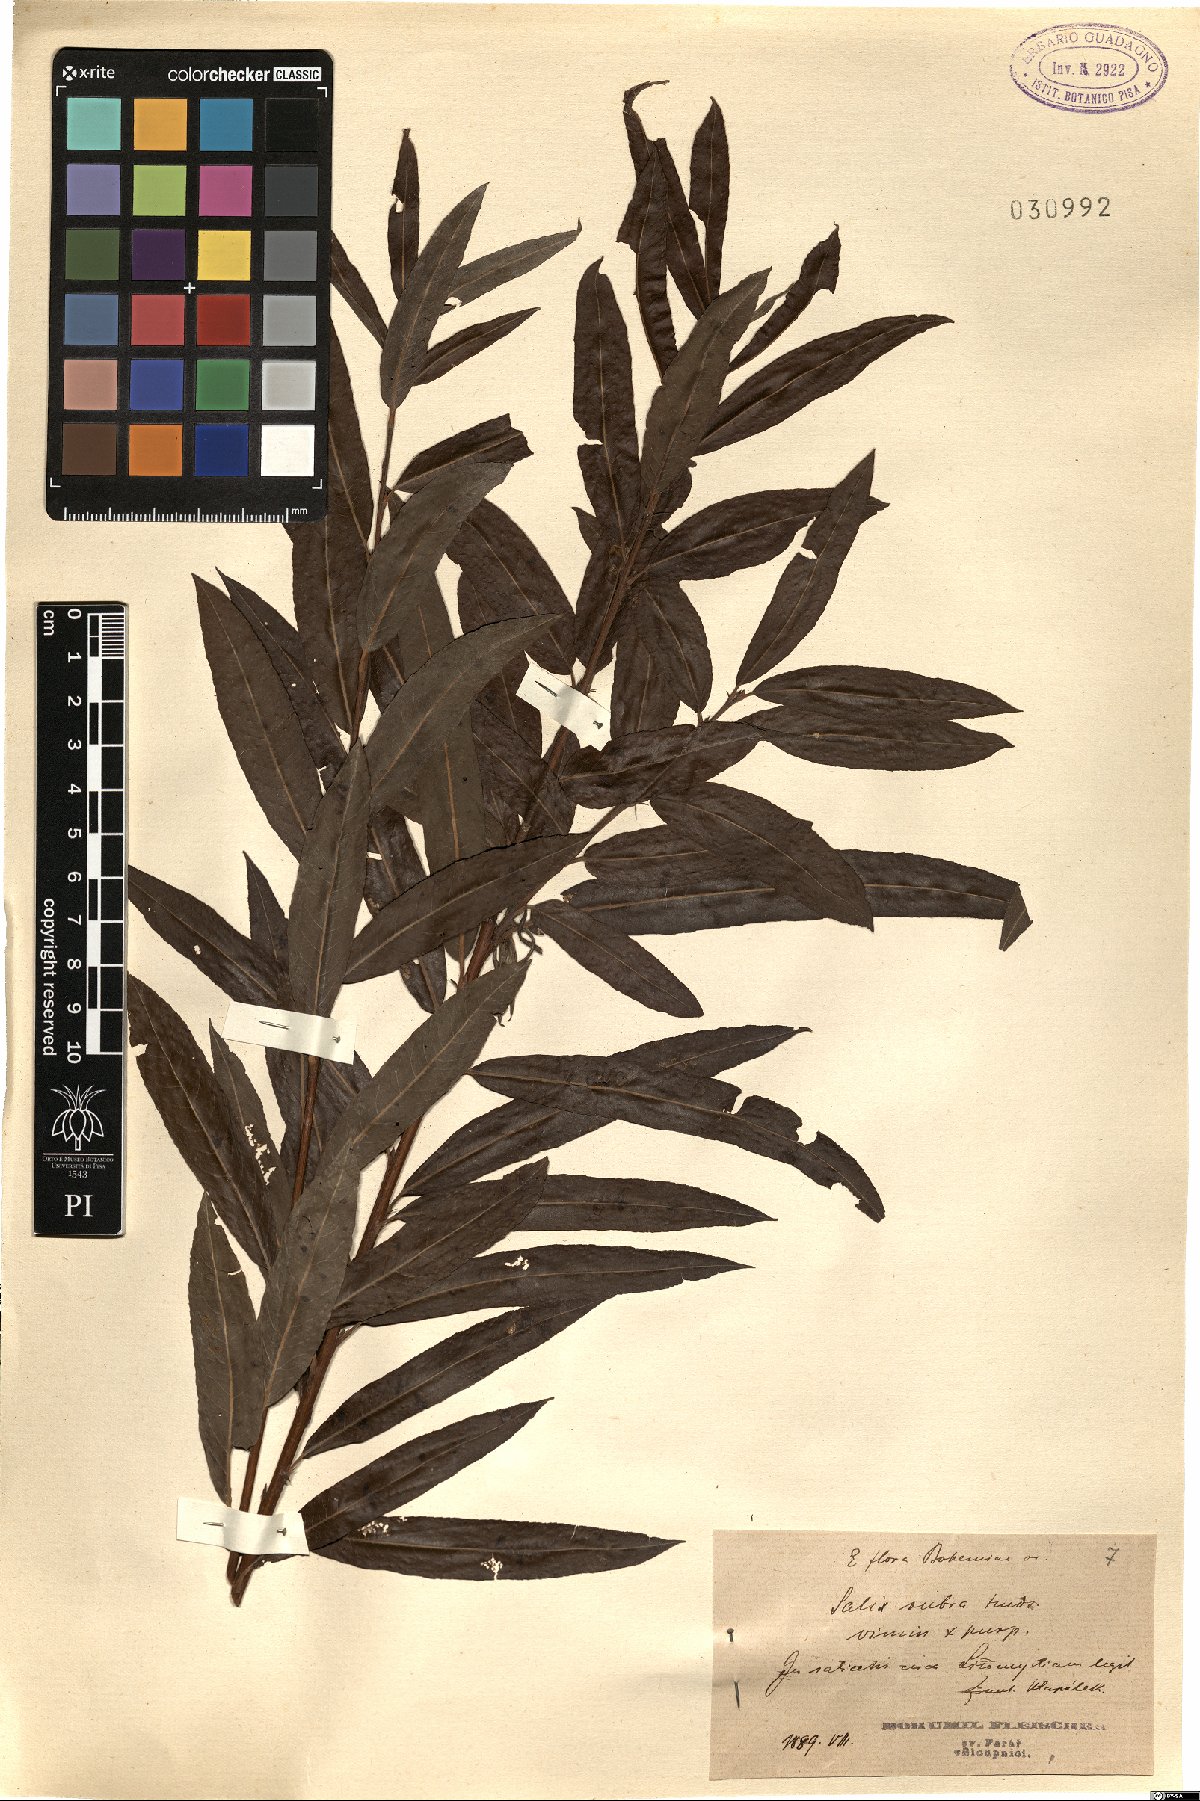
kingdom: Plantae
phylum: Tracheophyta
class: Magnoliopsida
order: Malpighiales
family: Salicaceae
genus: Salix
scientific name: Salix rubra
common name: Green-leaf willow
